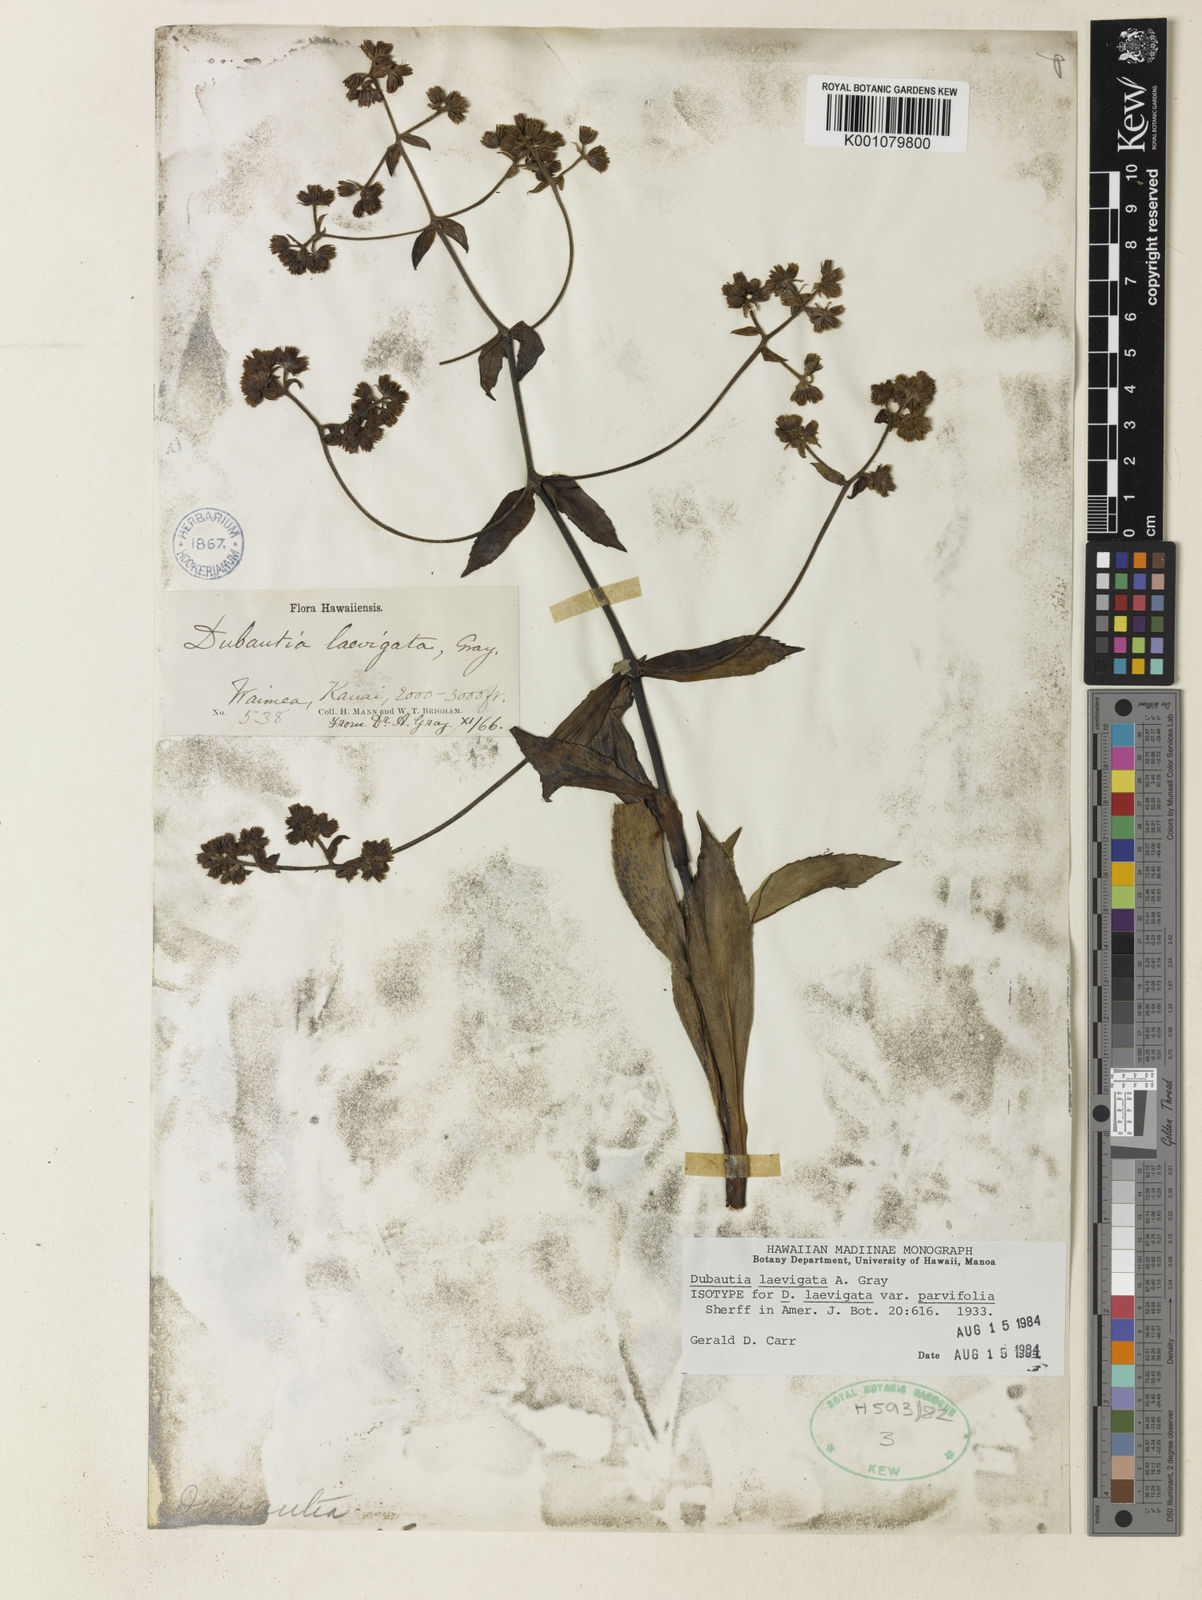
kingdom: Plantae
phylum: Tracheophyta
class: Magnoliopsida
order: Asterales
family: Asteraceae
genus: Dubautia
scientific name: Dubautia laevigata
